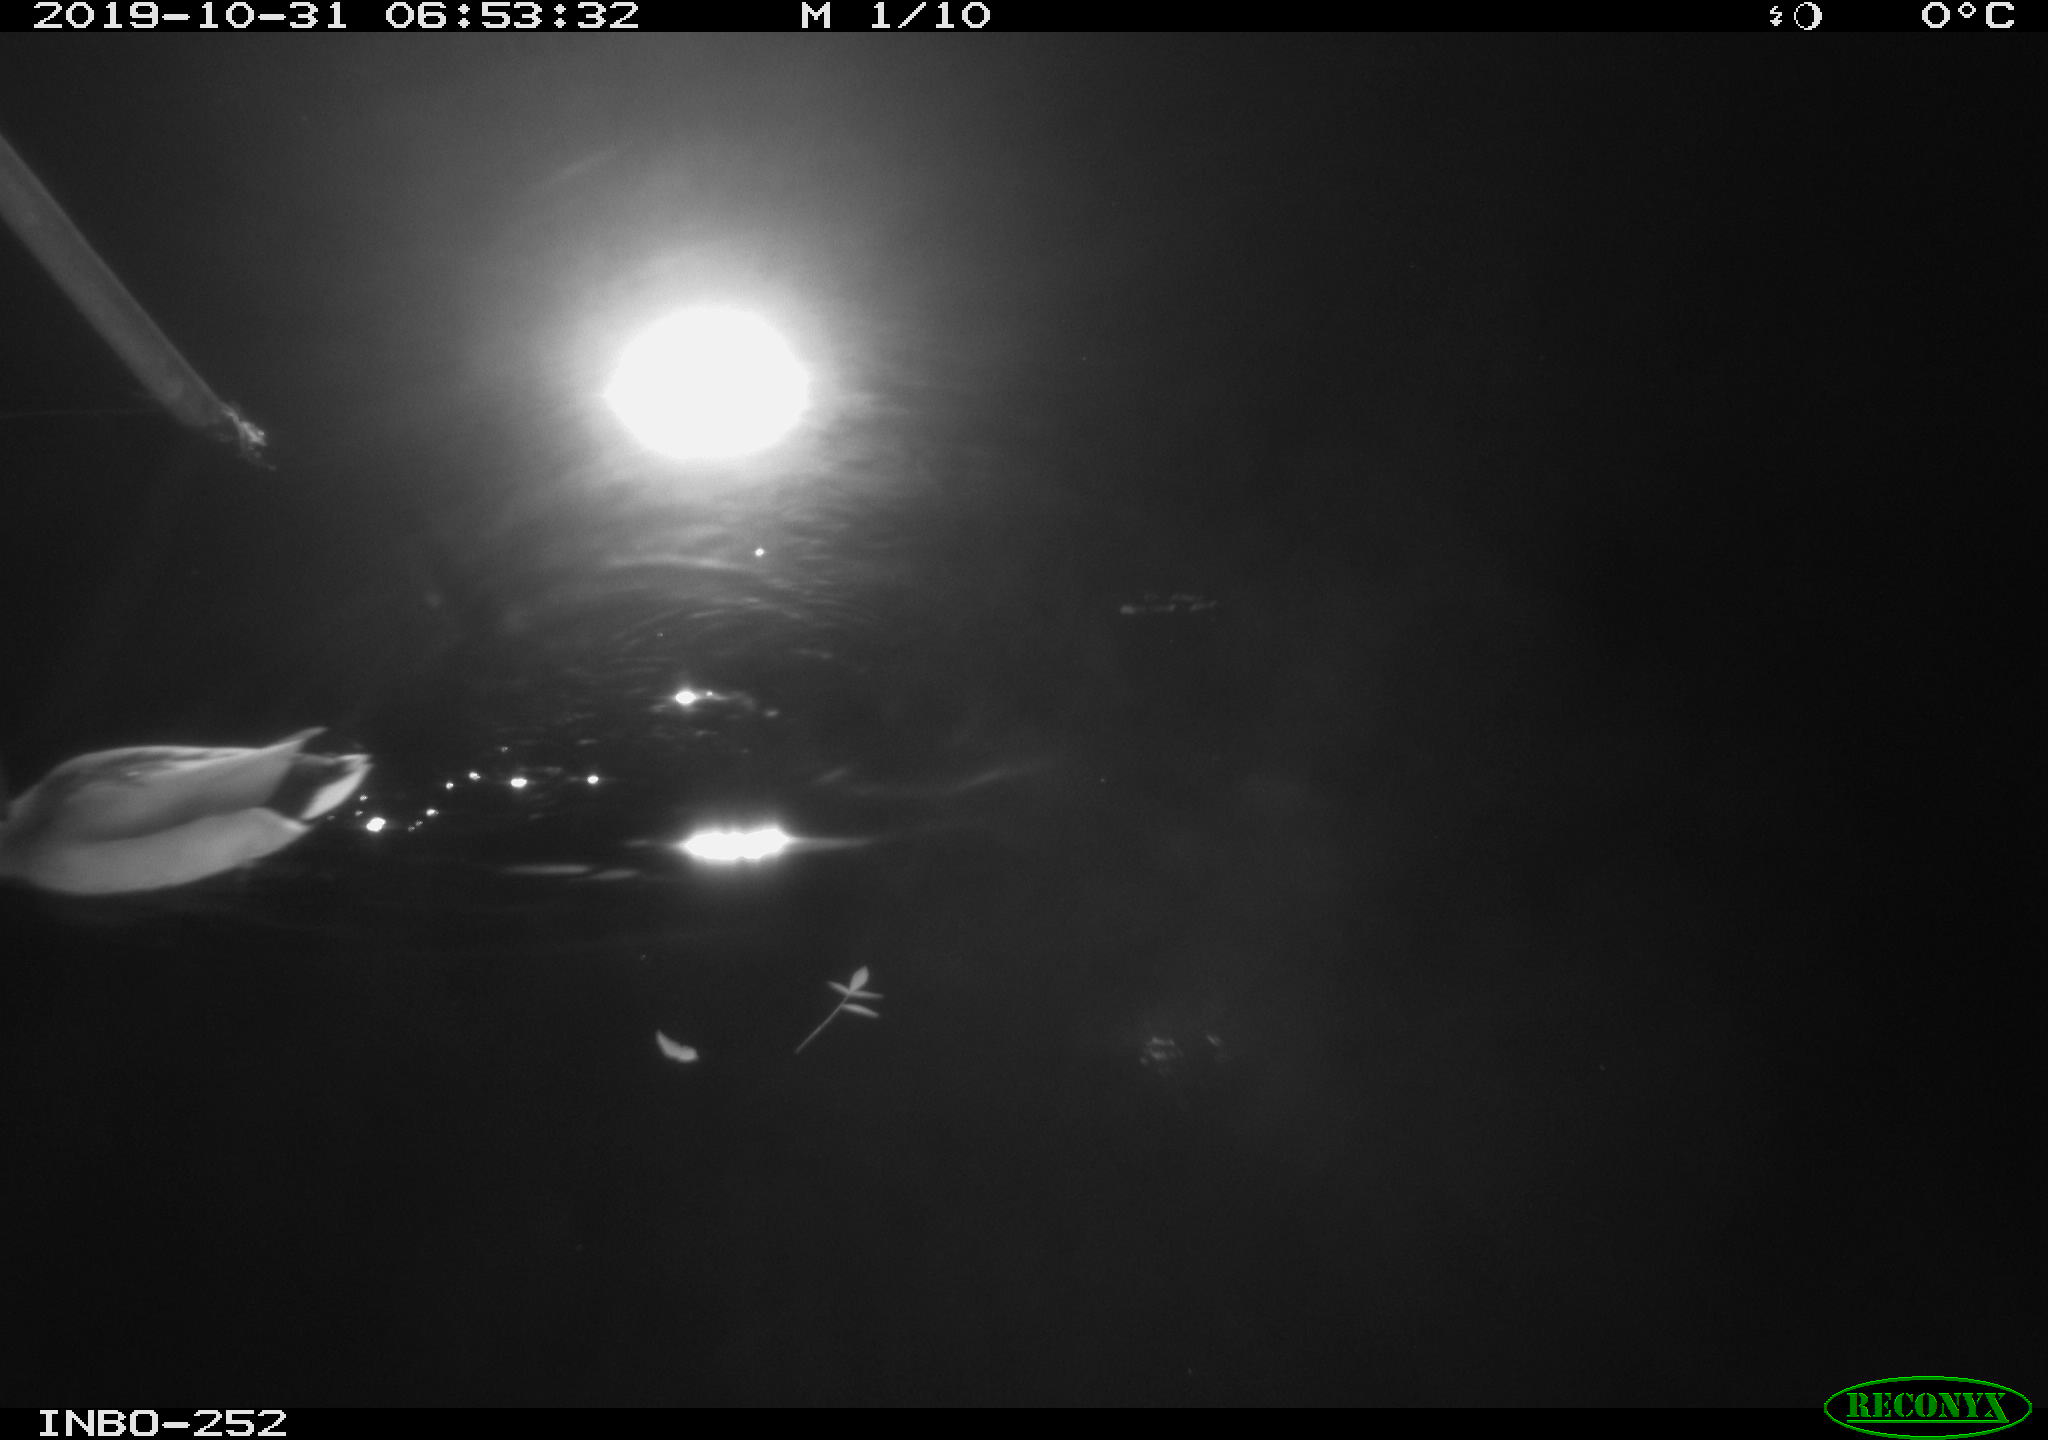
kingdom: Animalia
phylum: Chordata
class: Aves
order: Anseriformes
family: Anatidae
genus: Anas
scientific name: Anas platyrhynchos
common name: Mallard
